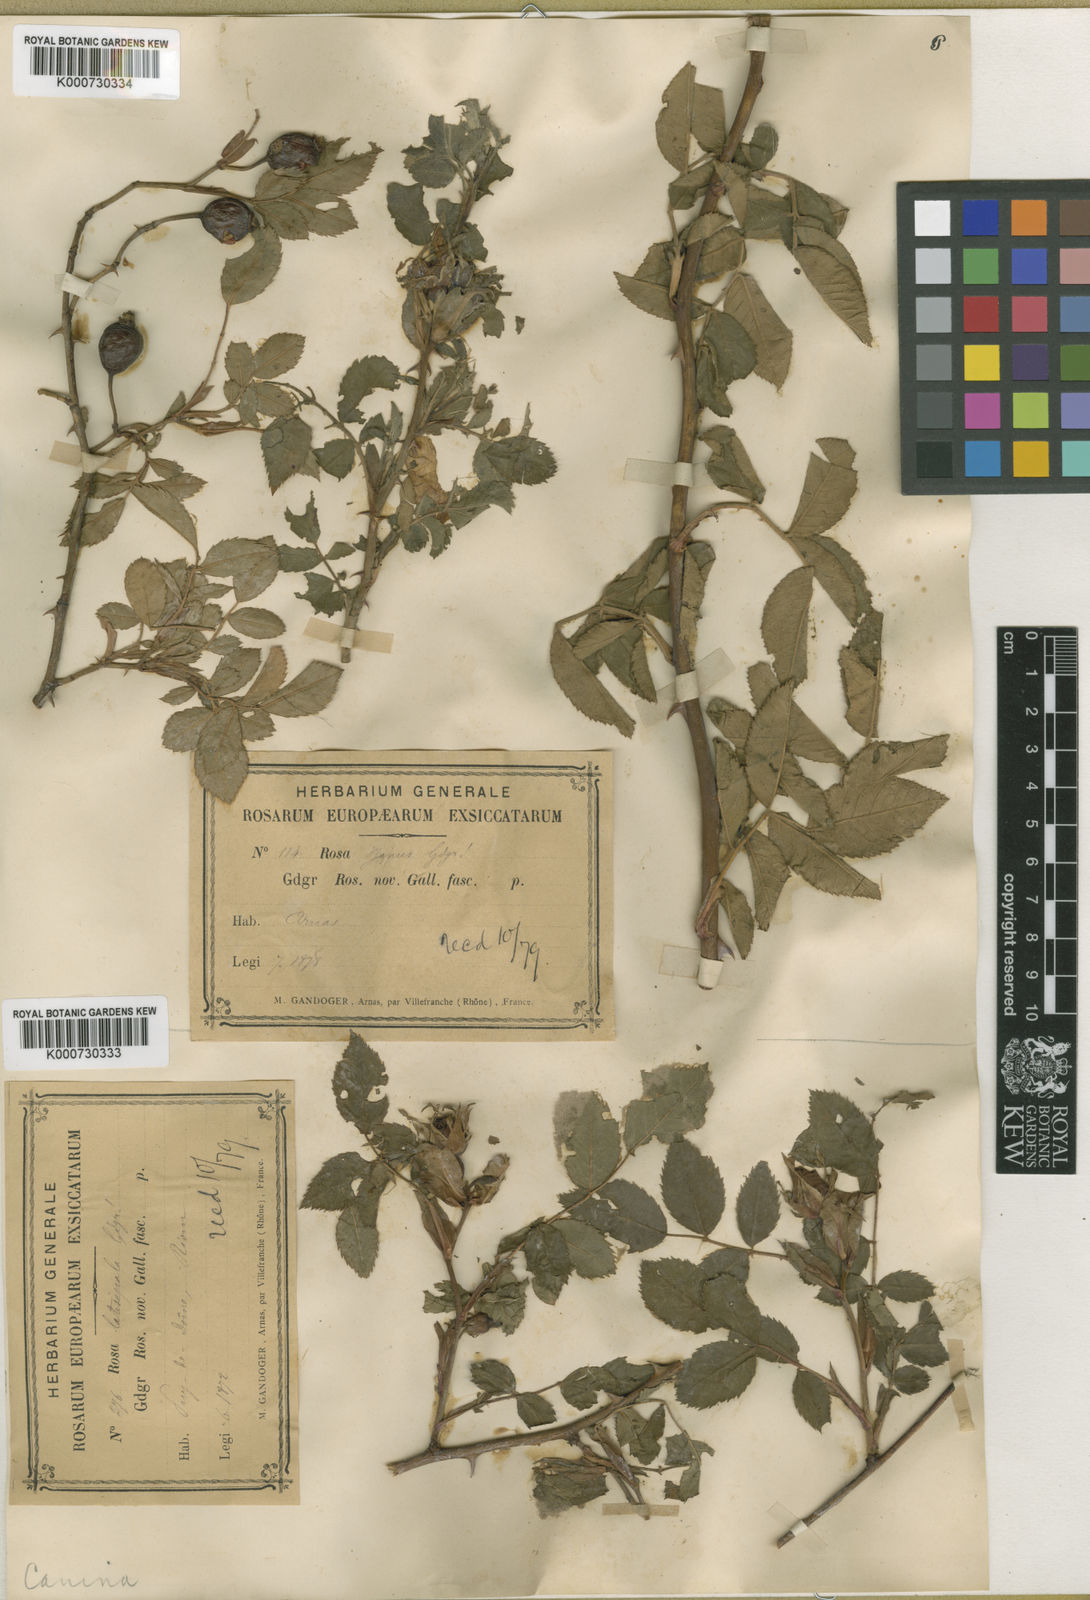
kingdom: Plantae
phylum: Tracheophyta
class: Magnoliopsida
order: Rosales
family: Rosaceae
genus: Rosa
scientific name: Rosa canina
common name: Dog rose
